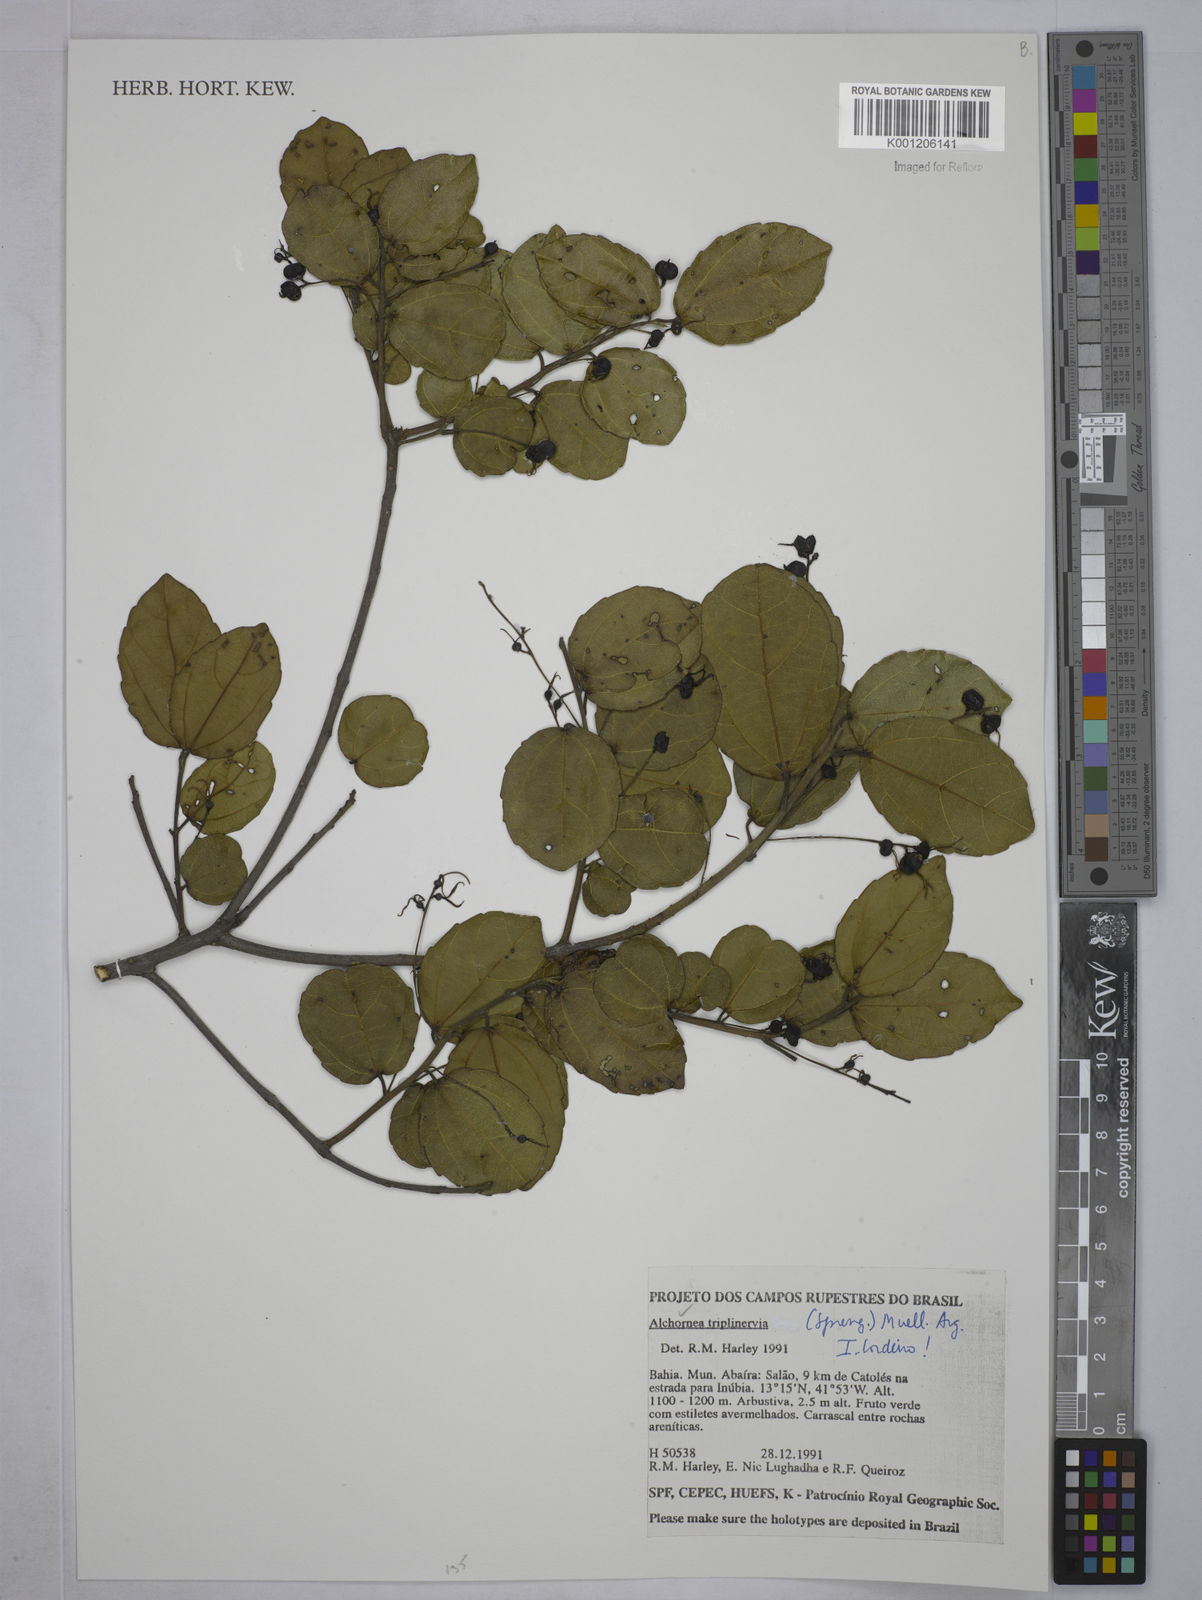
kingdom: Plantae
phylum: Tracheophyta
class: Magnoliopsida
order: Malpighiales
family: Euphorbiaceae
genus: Alchornea
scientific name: Alchornea
